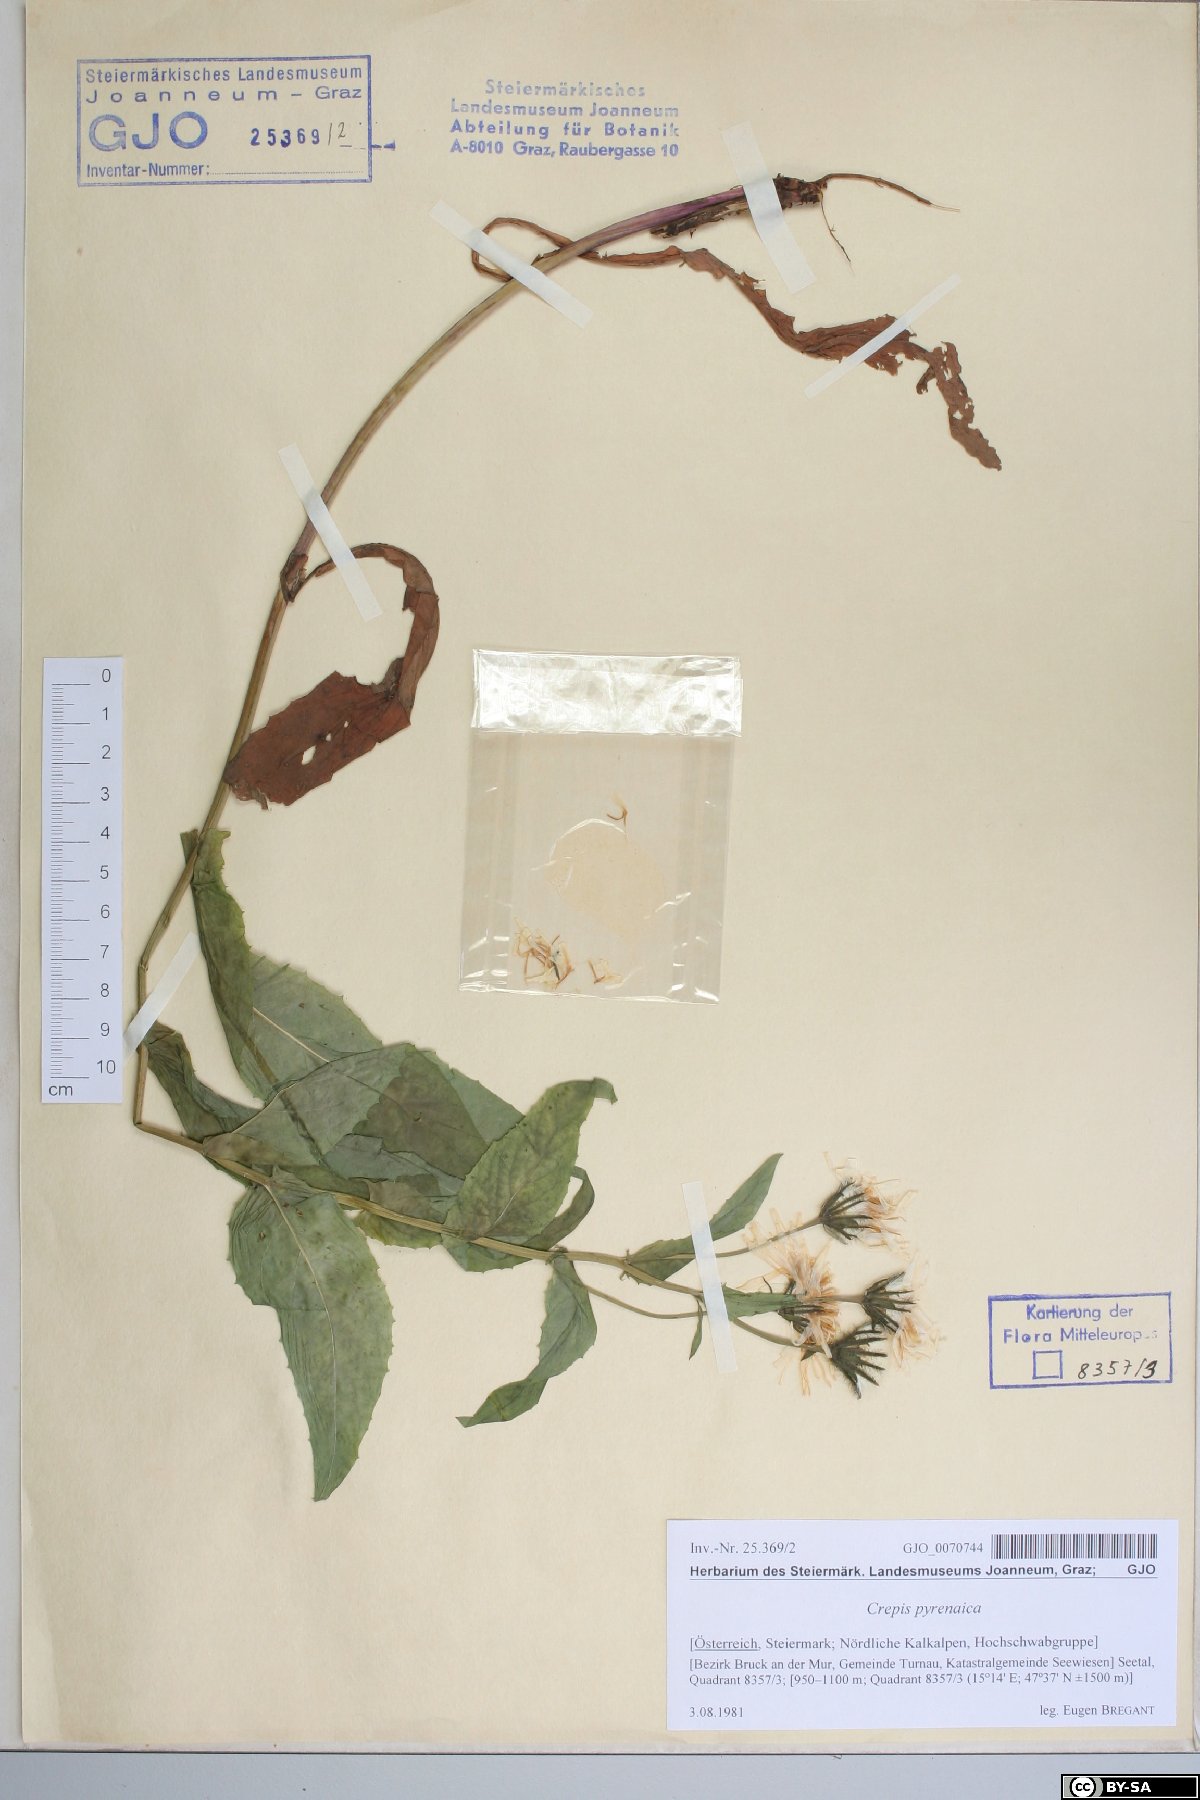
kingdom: Plantae
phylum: Tracheophyta
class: Magnoliopsida
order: Asterales
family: Asteraceae
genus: Crepis
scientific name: Crepis pyrenaica
